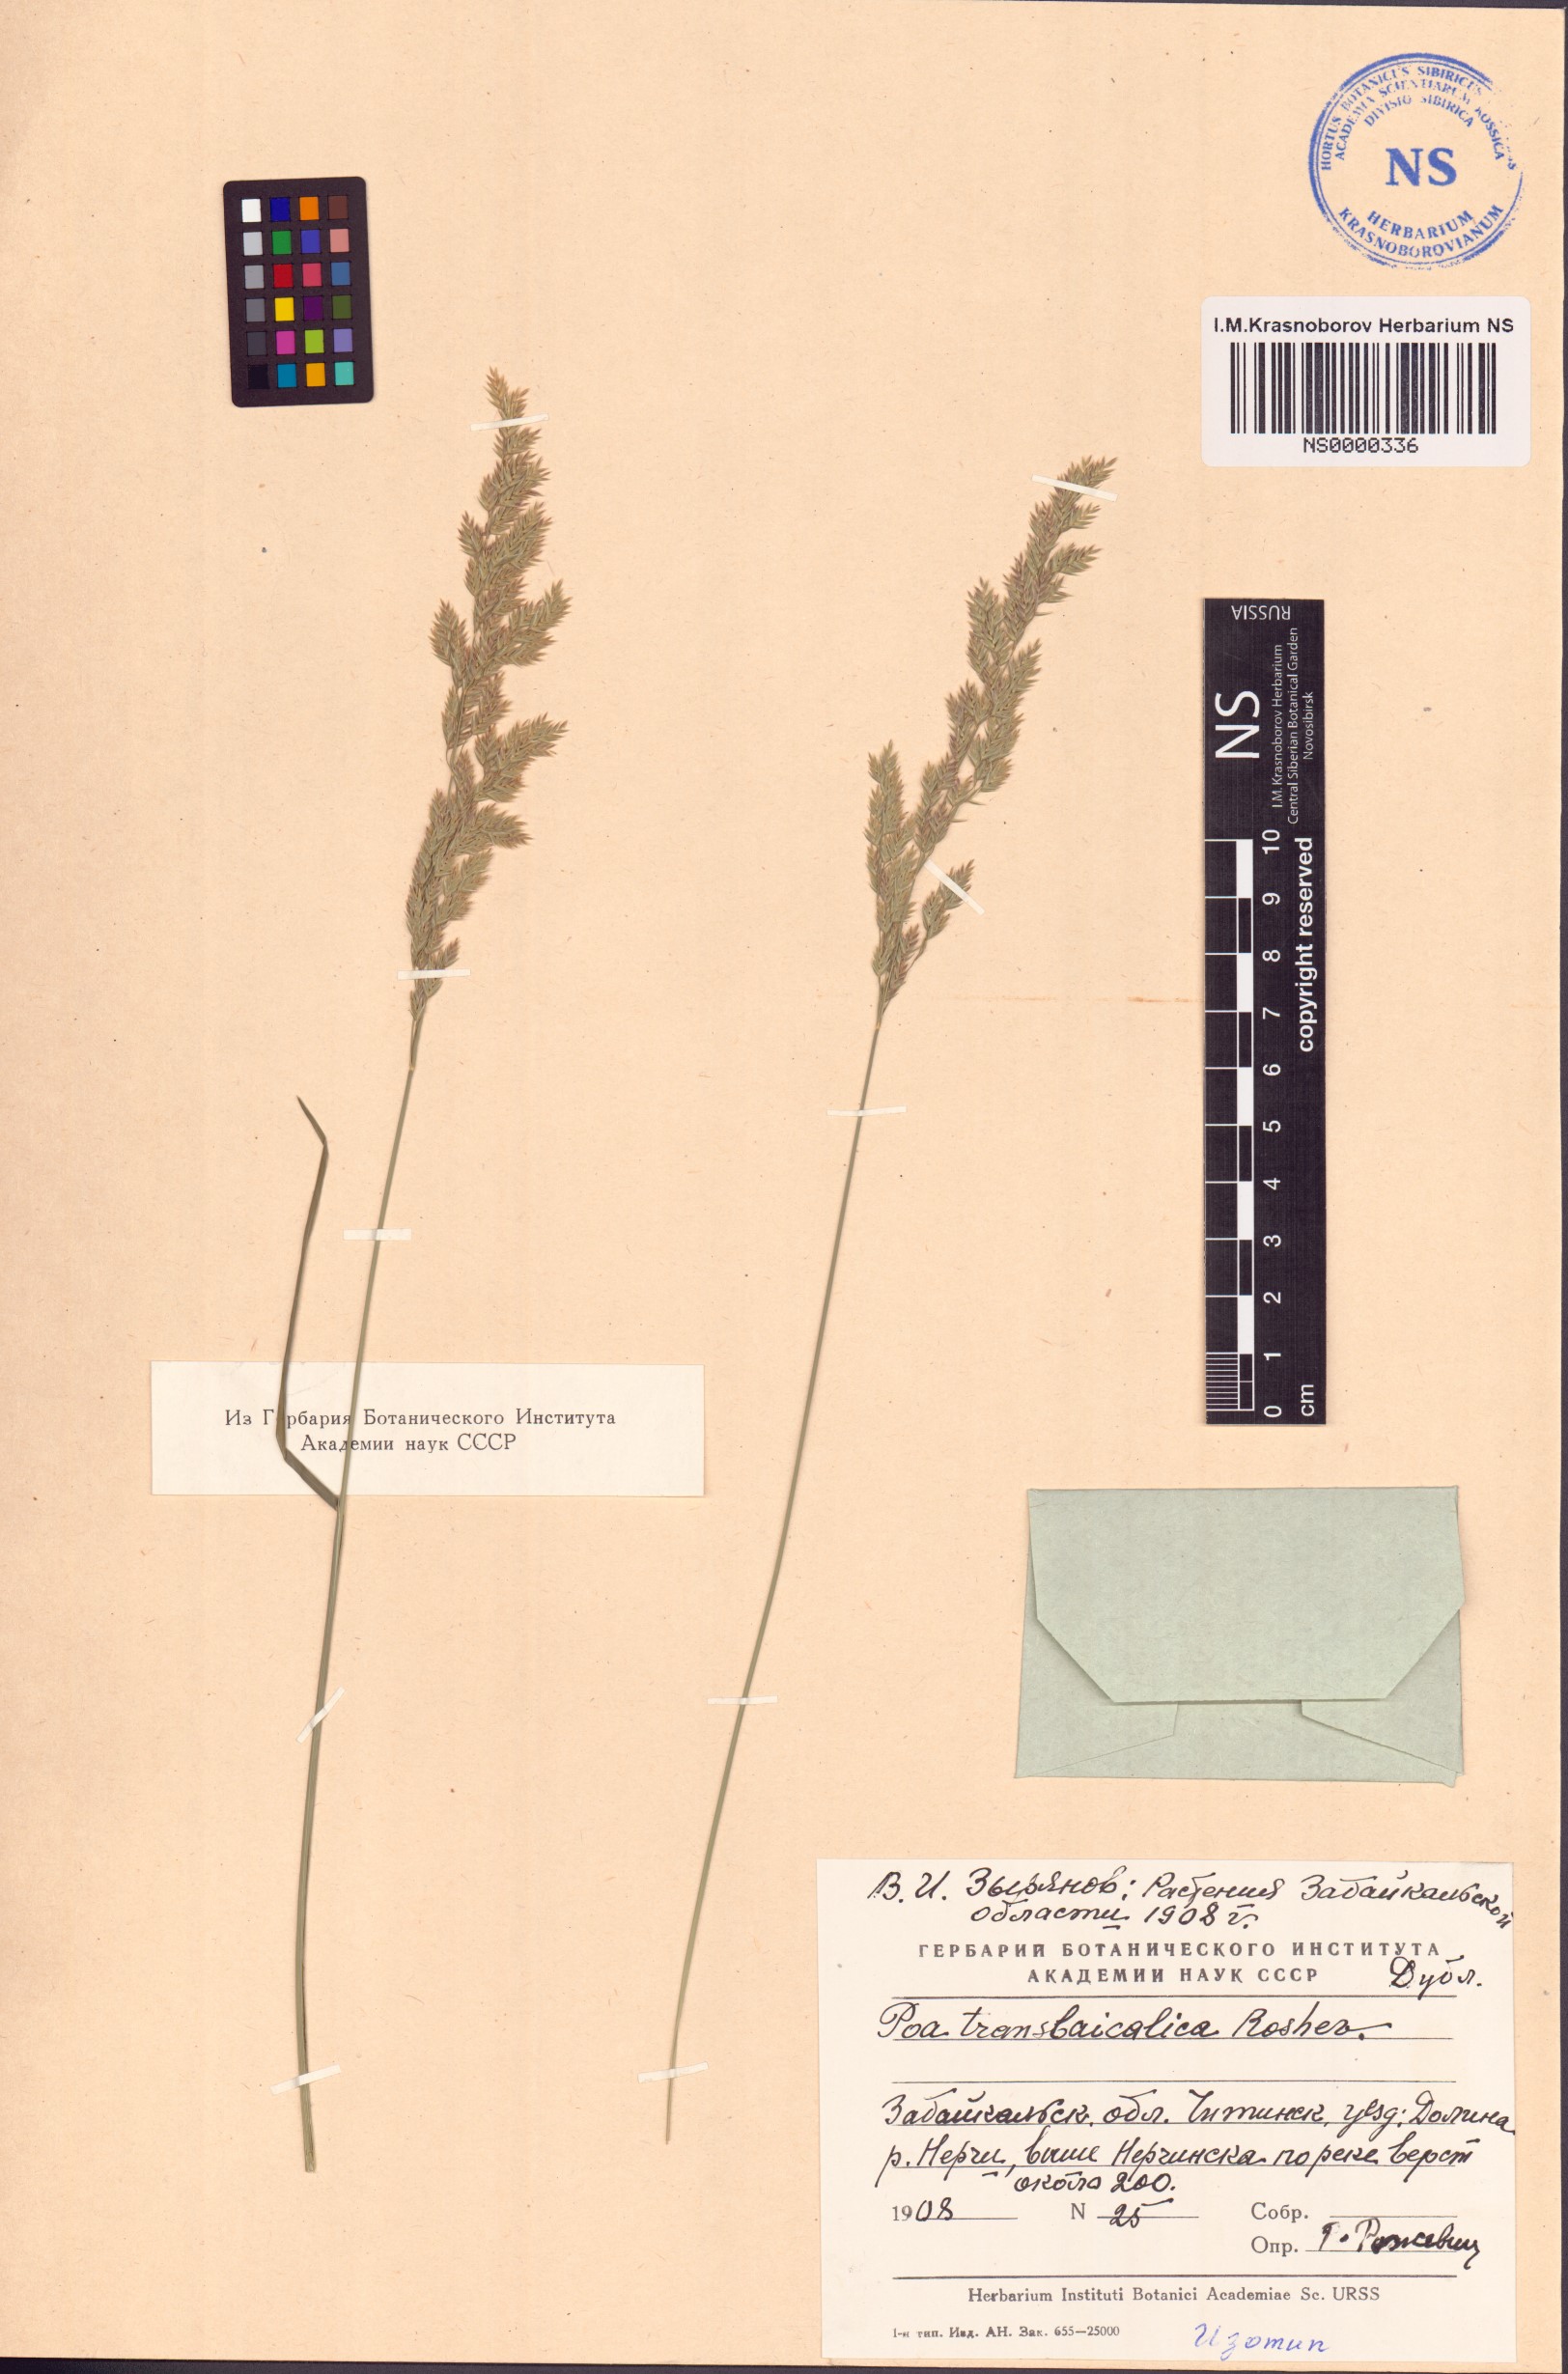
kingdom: Plantae
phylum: Tracheophyta
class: Liliopsida
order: Poales
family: Poaceae
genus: Poa
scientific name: Poa versicolor
